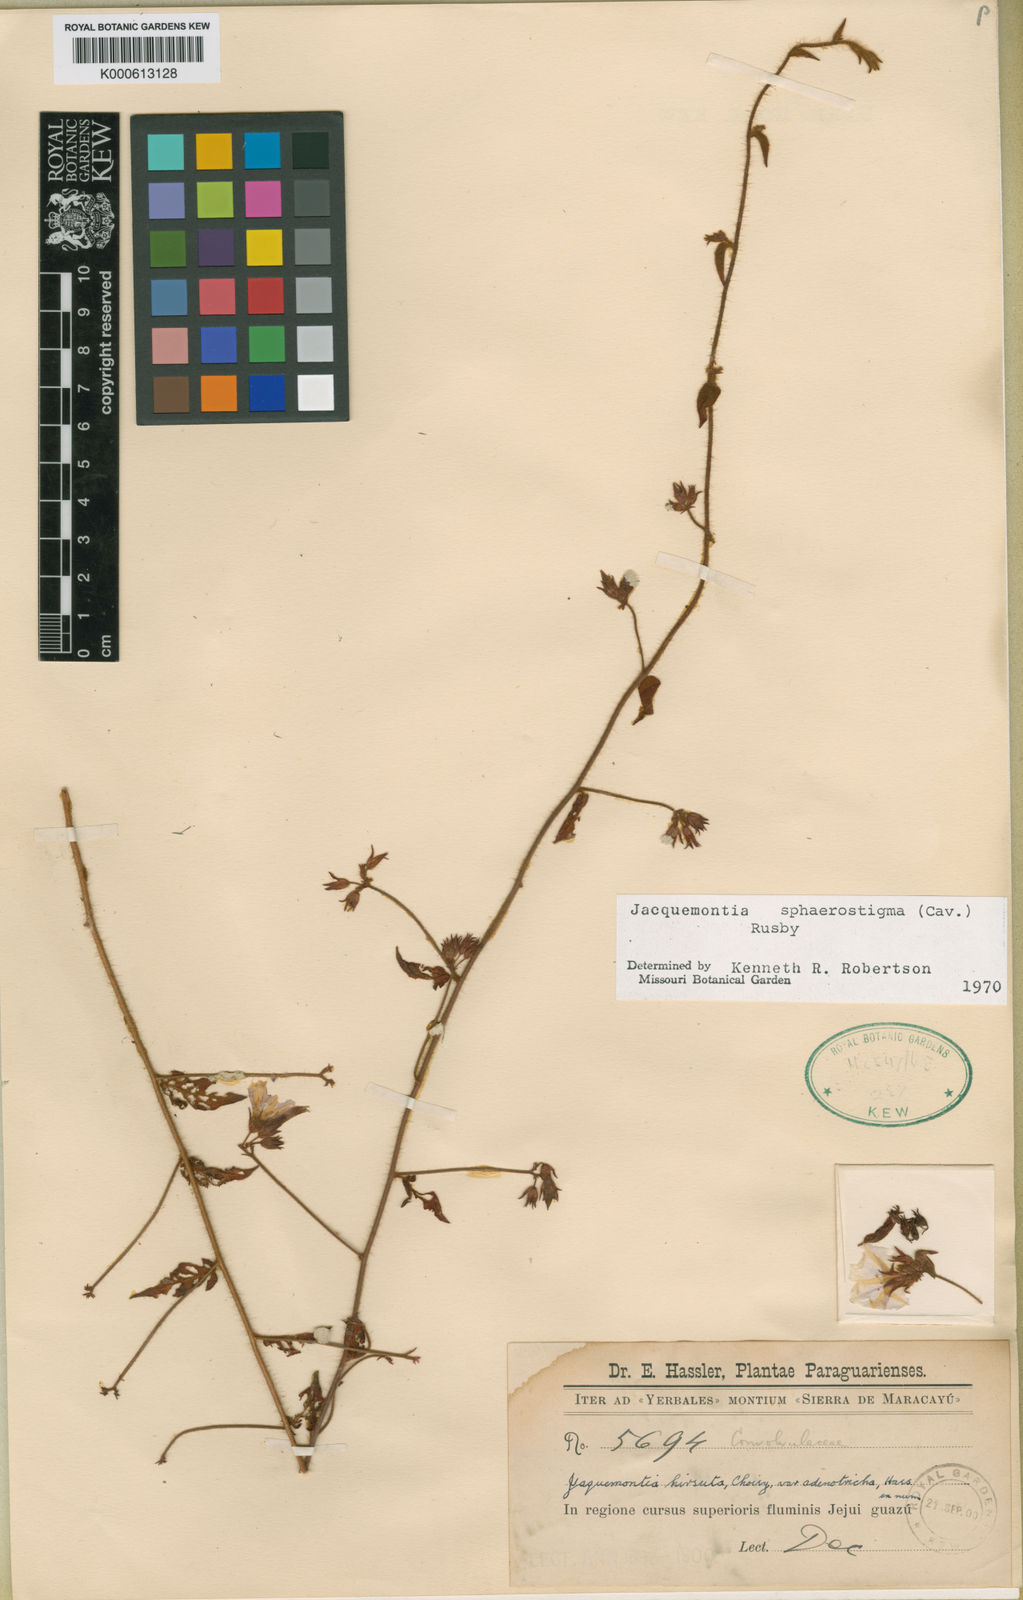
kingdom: Plantae
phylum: Tracheophyta
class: Magnoliopsida
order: Solanales
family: Convolvulaceae
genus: Jacquemontia
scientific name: Jacquemontia sphaerostigma
